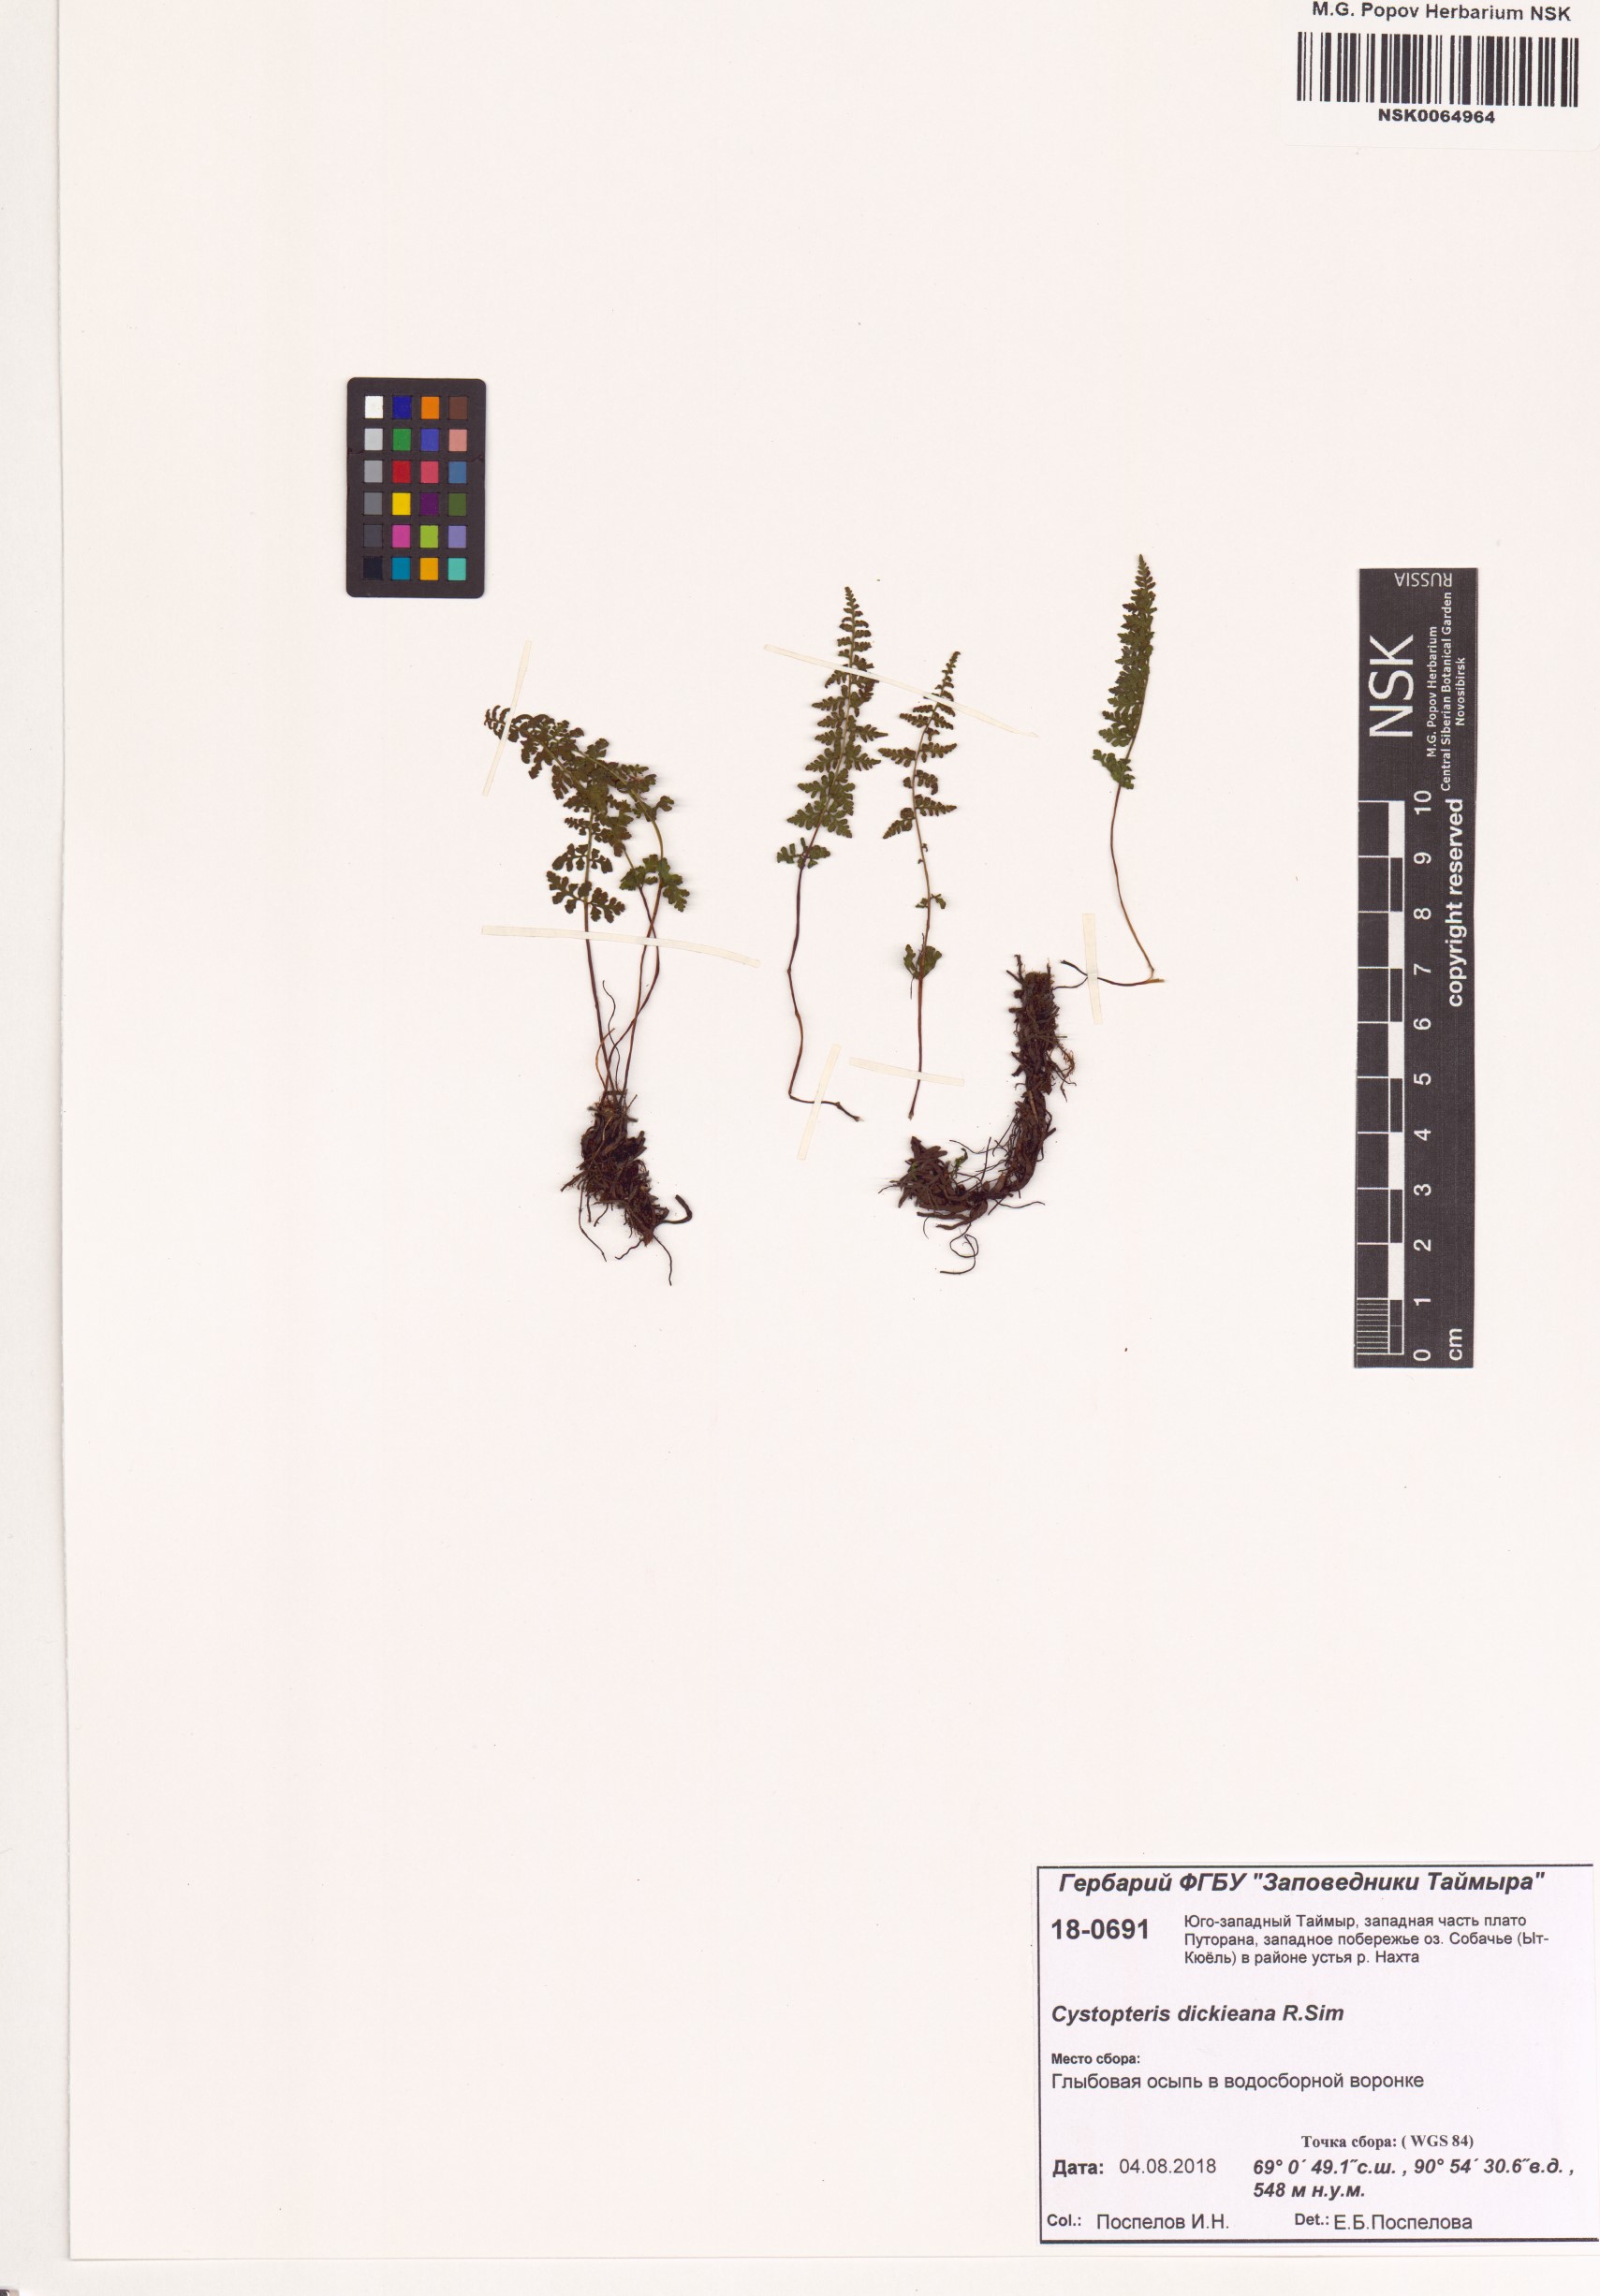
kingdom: Plantae
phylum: Tracheophyta
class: Polypodiopsida
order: Polypodiales
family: Cystopteridaceae
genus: Cystopteris
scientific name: Cystopteris dickieana
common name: Dickie's bladder-fern
